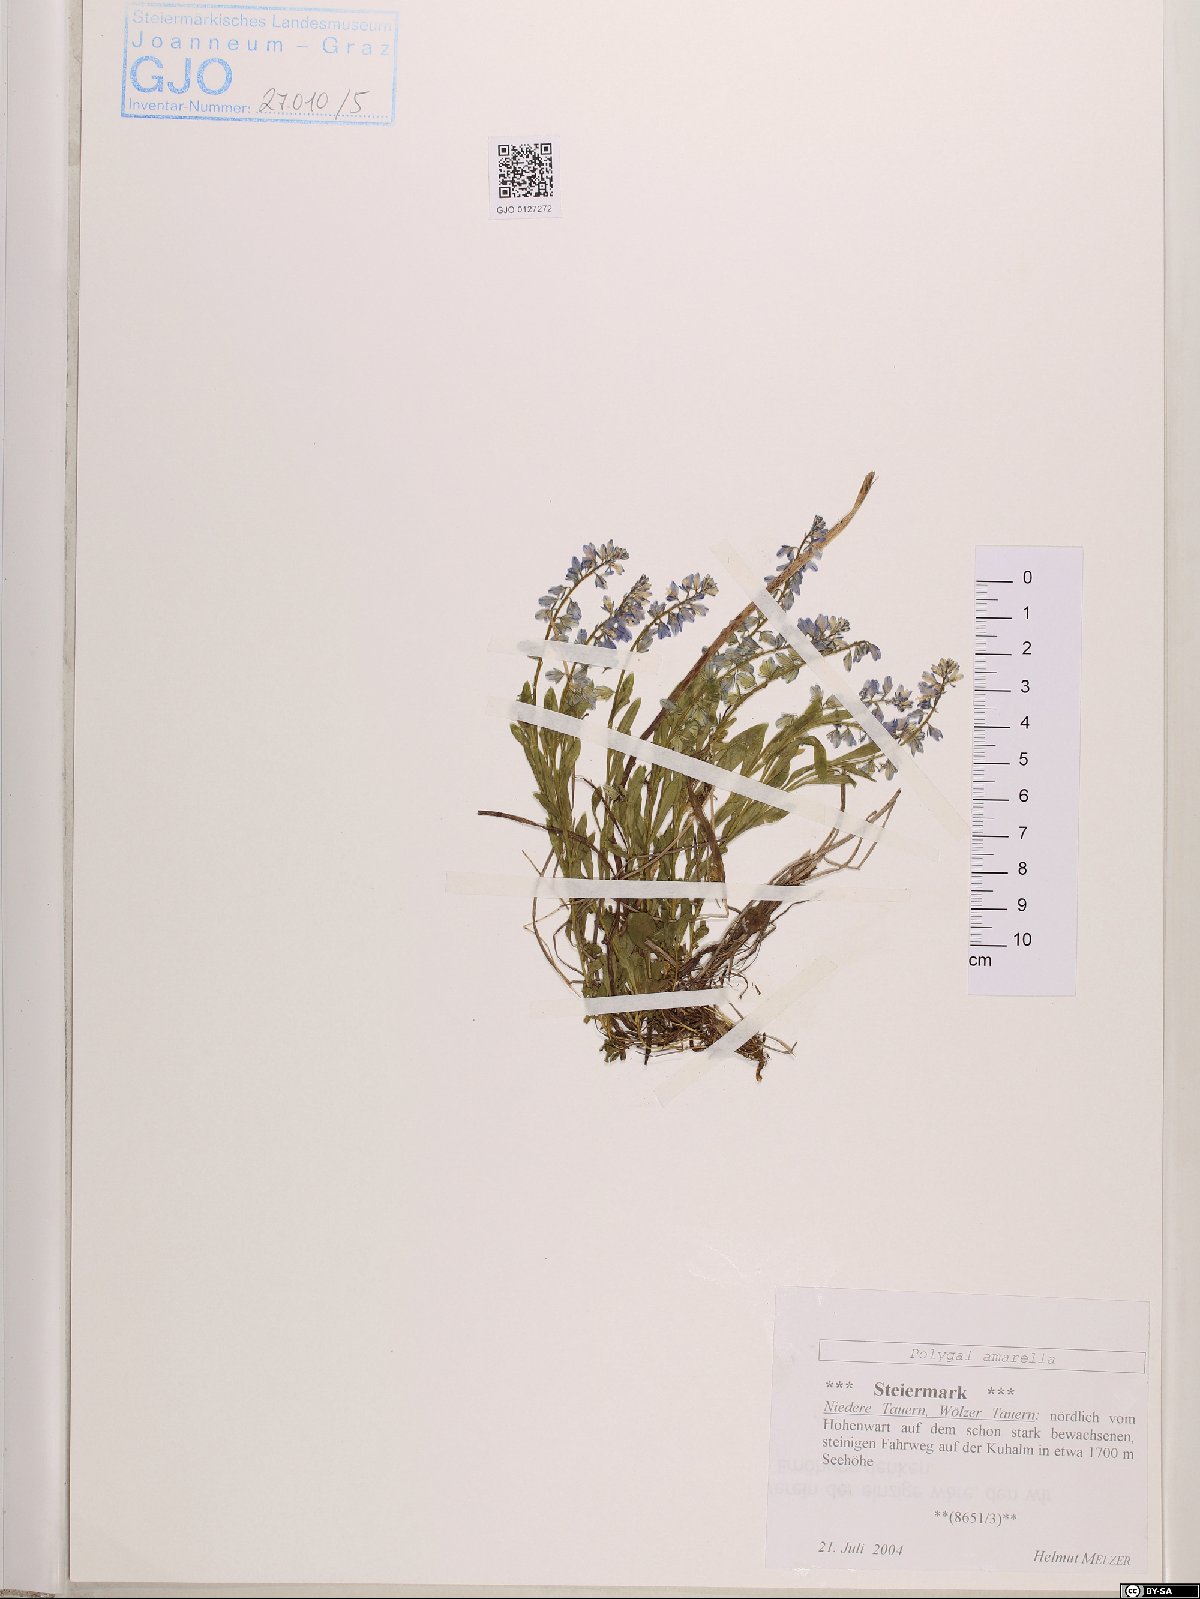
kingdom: Plantae
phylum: Tracheophyta
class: Magnoliopsida
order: Fabales
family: Polygalaceae
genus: Polygala
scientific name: Polygala amarella
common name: Dwarf milkwort
